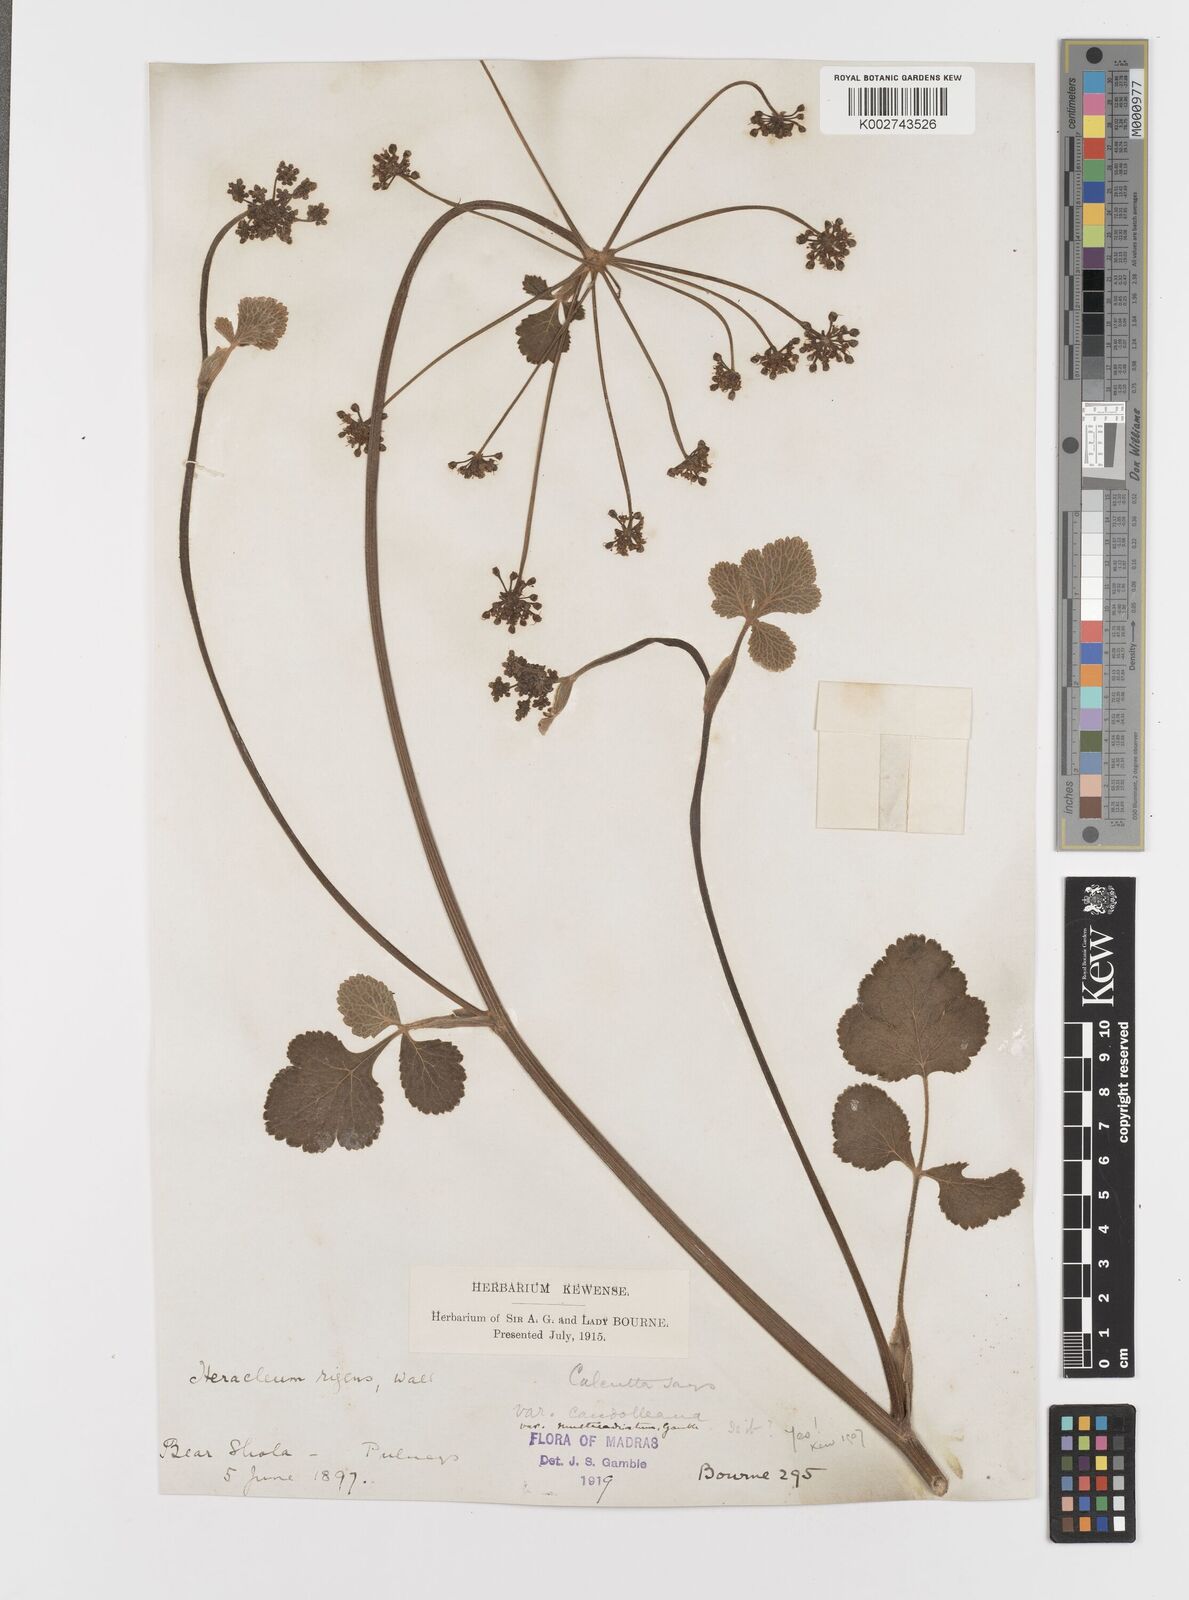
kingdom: Plantae
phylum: Tracheophyta
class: Magnoliopsida
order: Apiales
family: Apiaceae
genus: Tetrataenium
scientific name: Tetrataenium rigens
